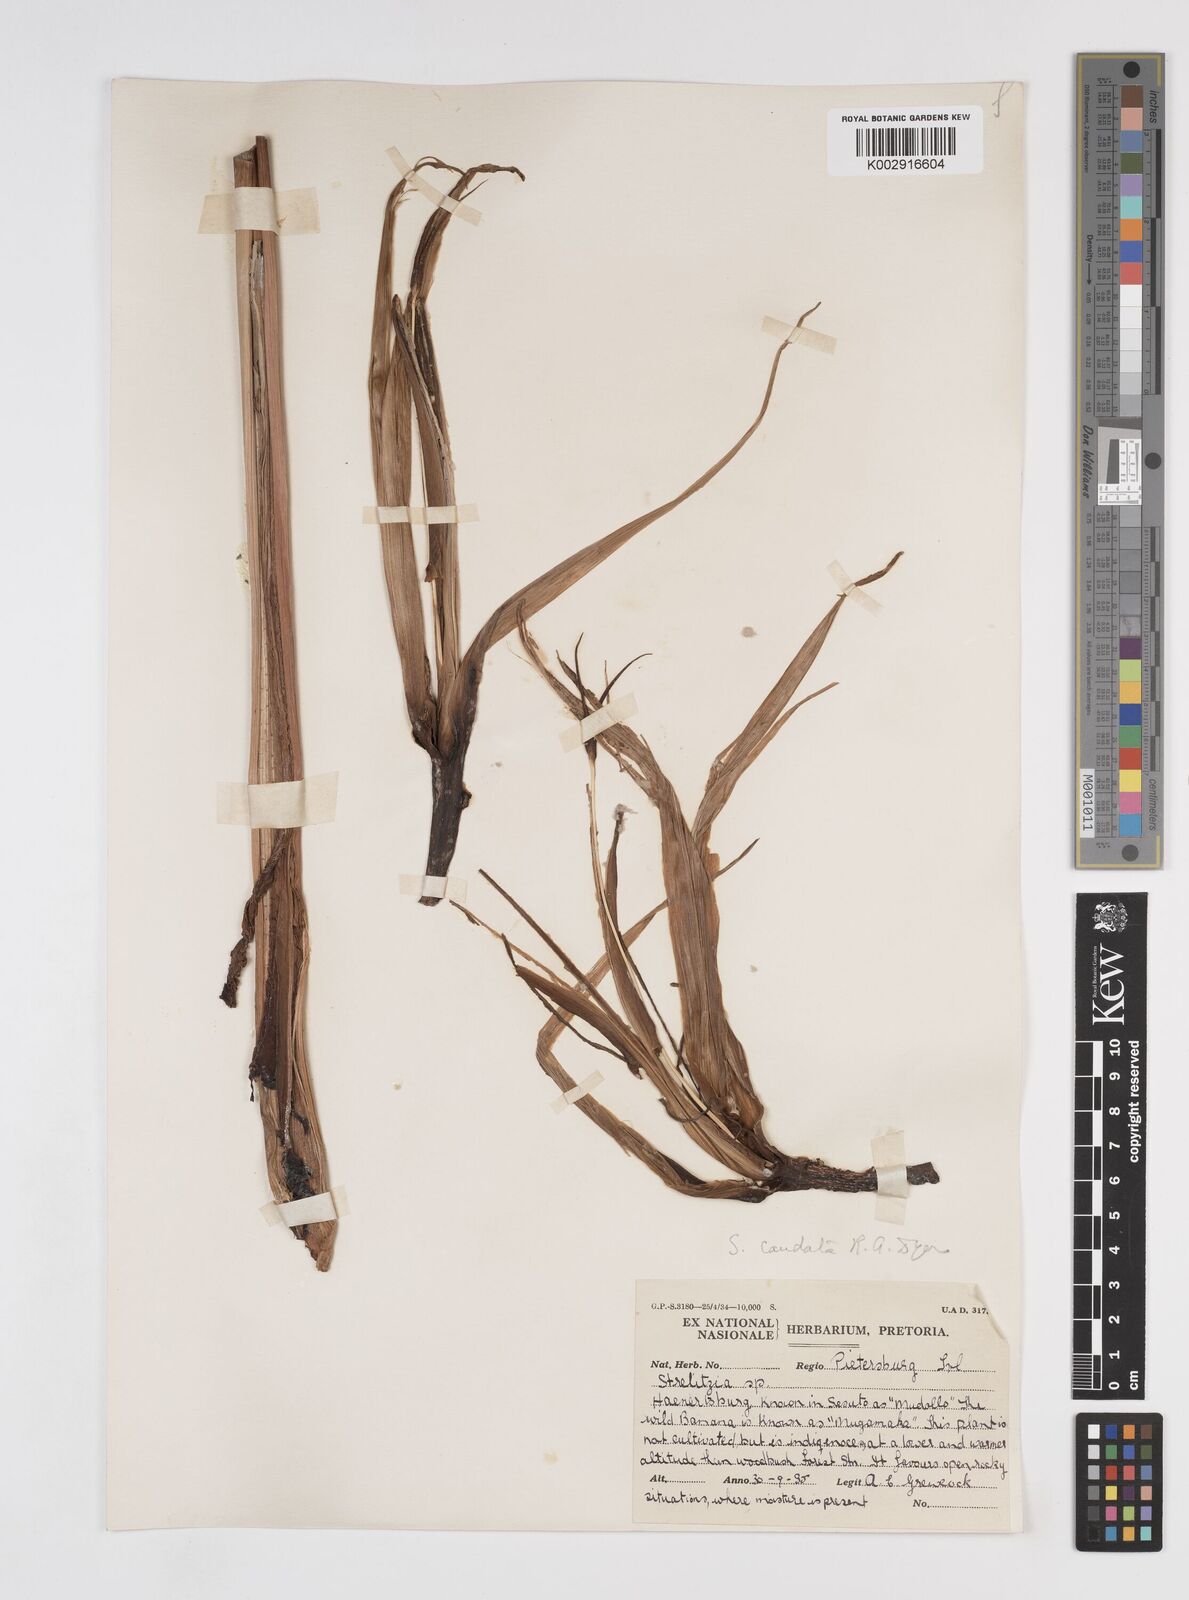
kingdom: Plantae
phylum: Tracheophyta
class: Liliopsida
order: Zingiberales
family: Strelitziaceae
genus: Strelitzia
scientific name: Strelitzia caudata
